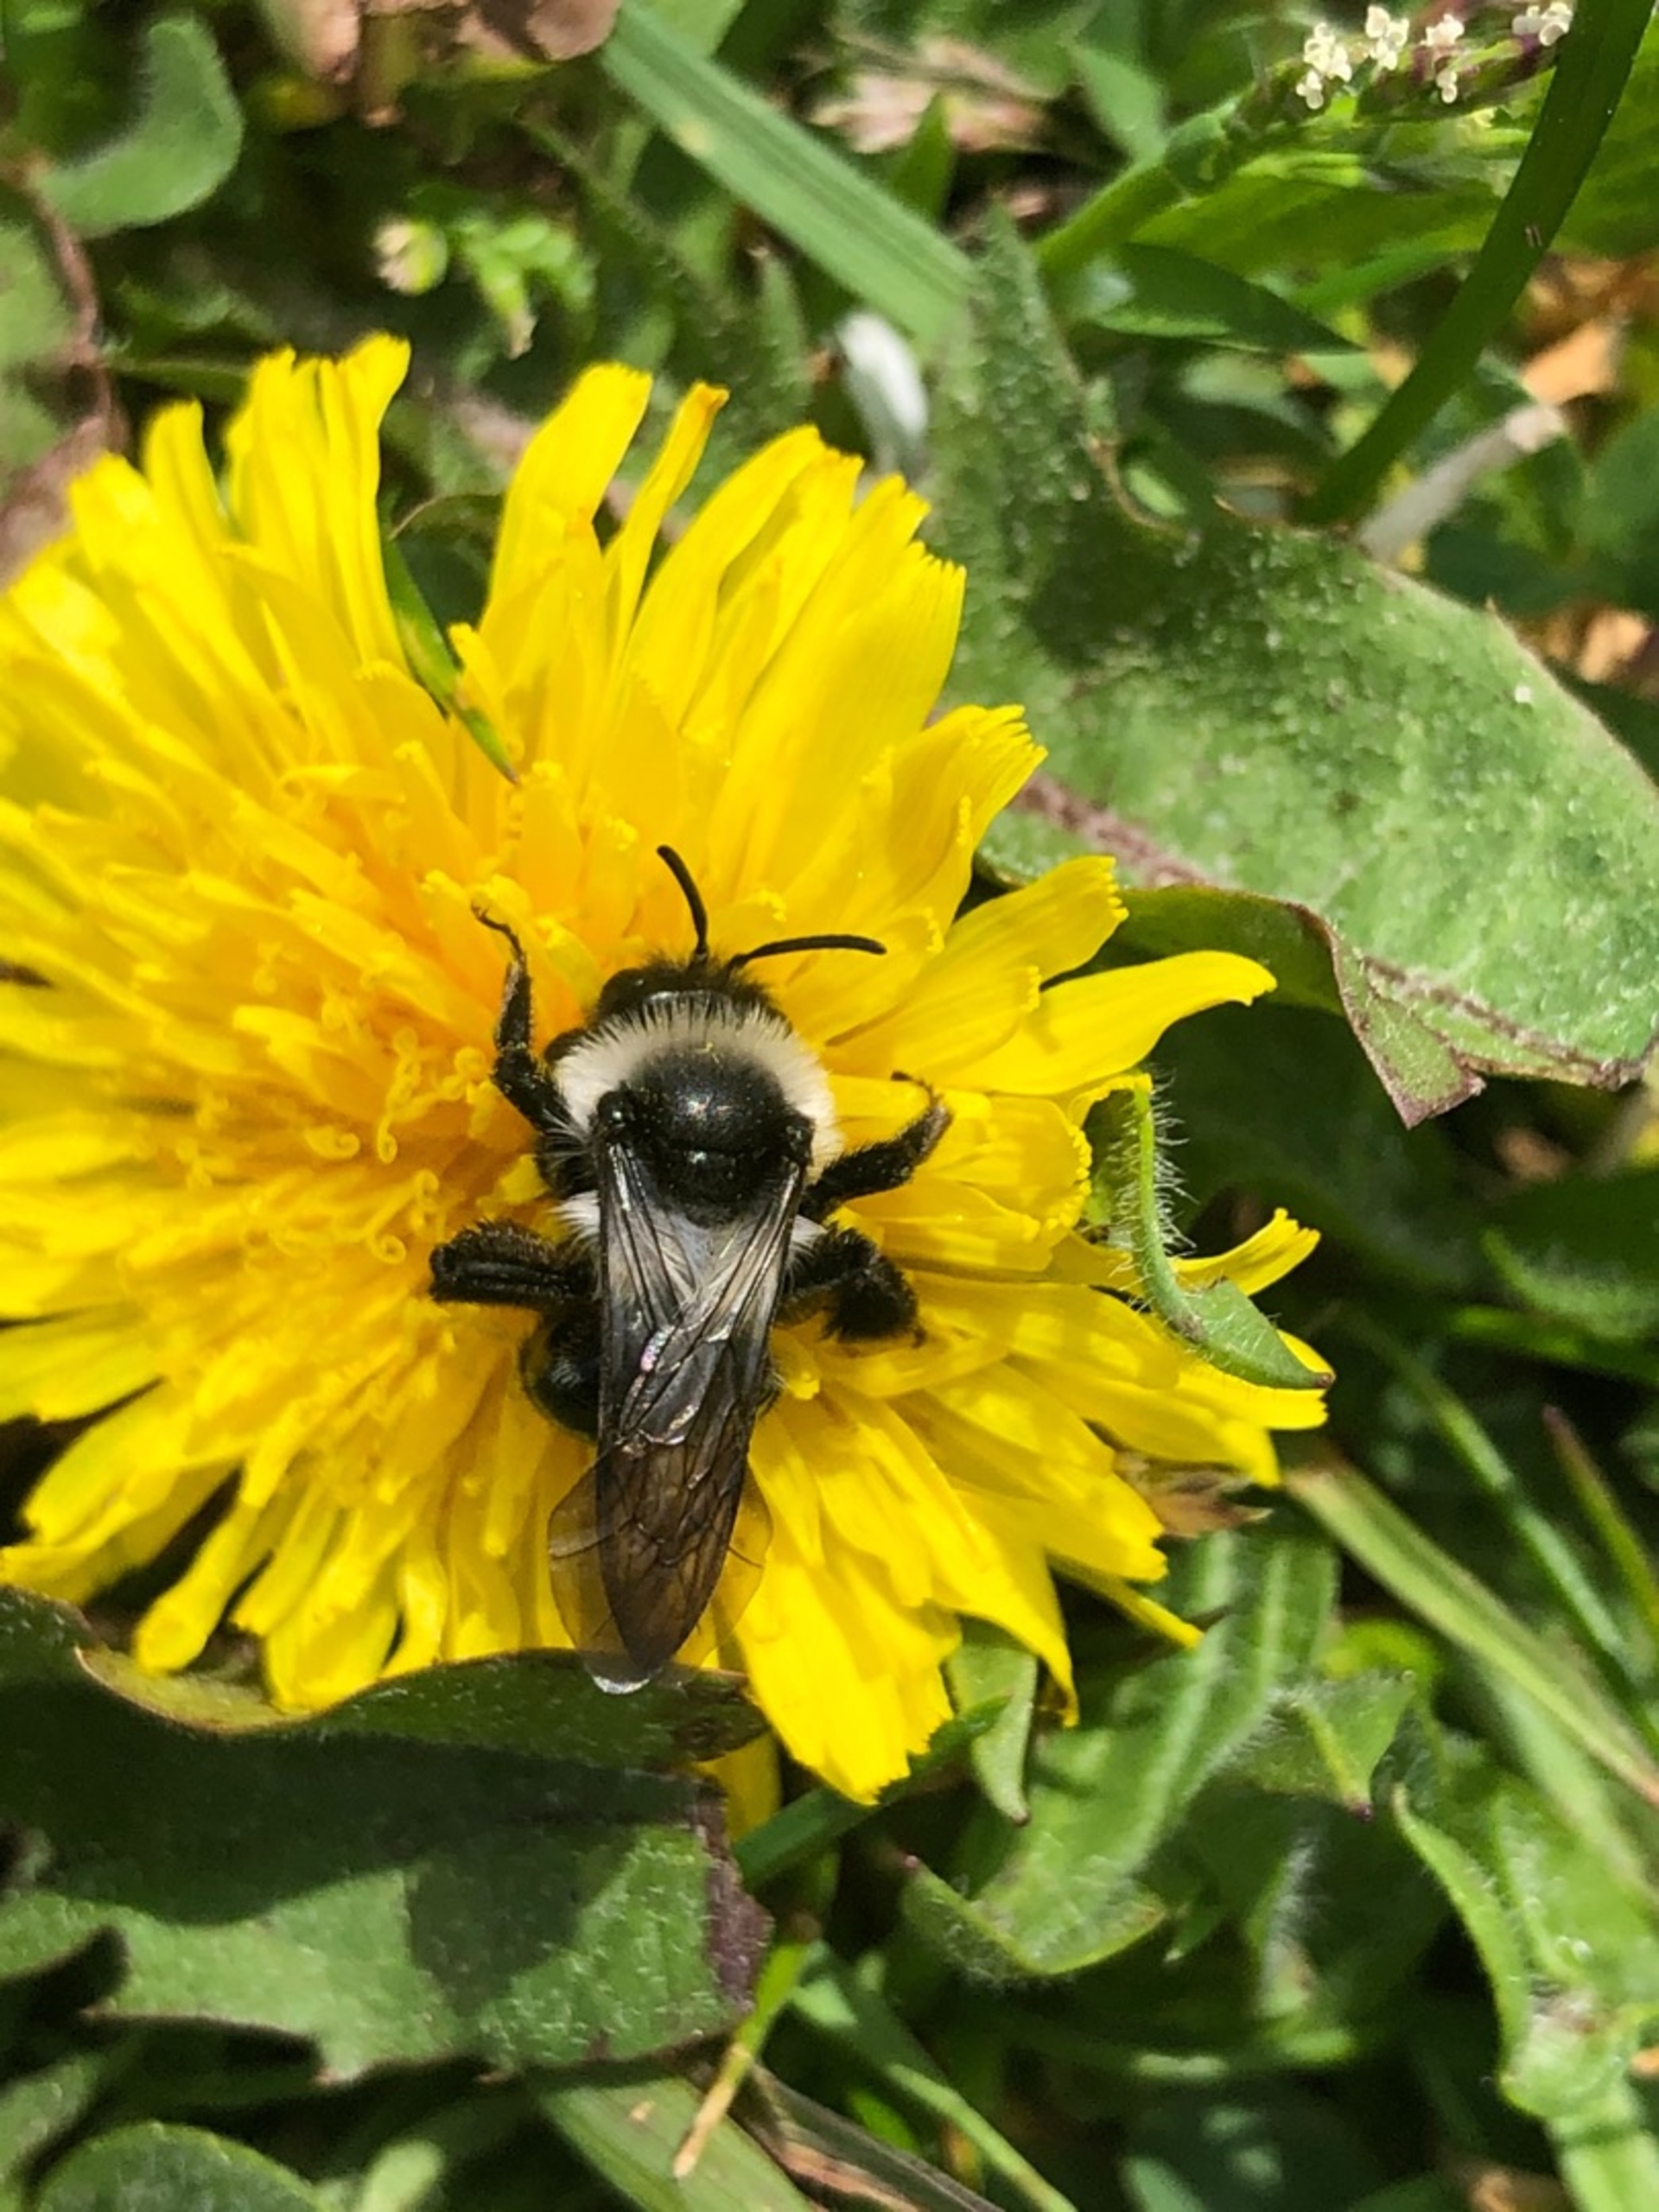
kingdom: Animalia
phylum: Arthropoda
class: Insecta
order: Hymenoptera
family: Andrenidae
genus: Andrena
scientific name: Andrena cineraria
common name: Sorthvid jordbi
